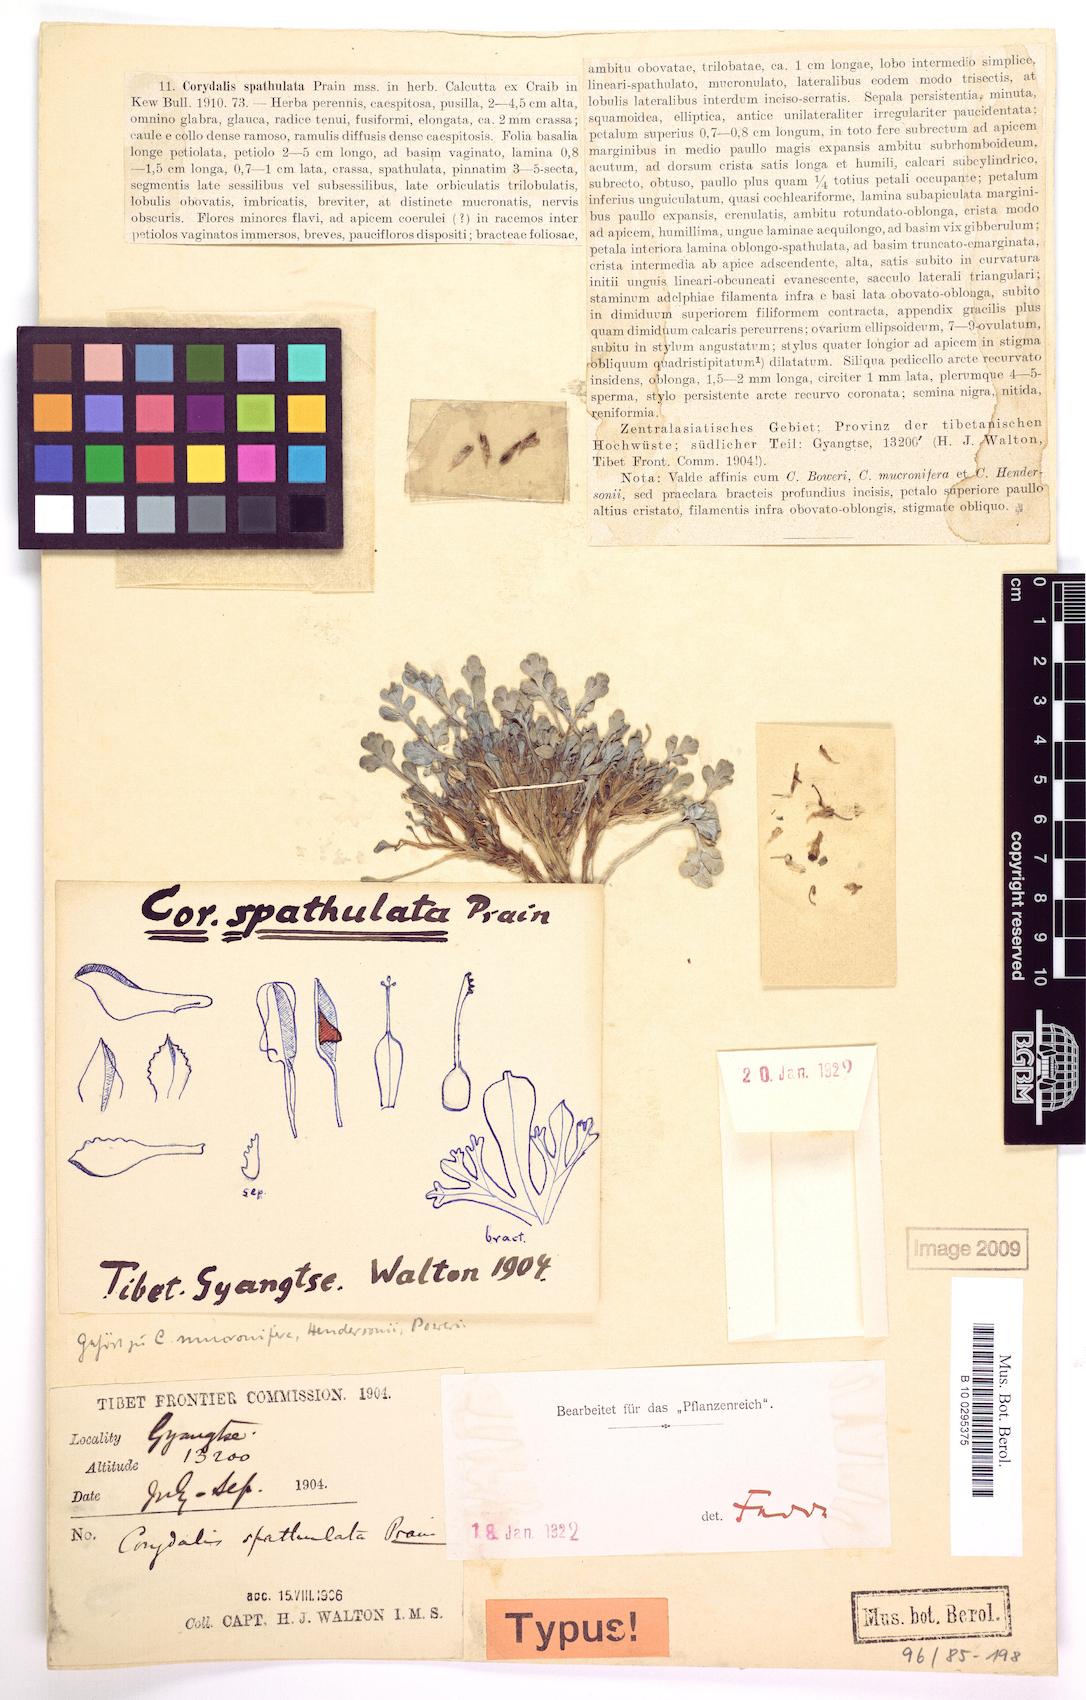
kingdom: Plantae
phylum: Tracheophyta
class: Magnoliopsida
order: Ranunculales
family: Papaveraceae
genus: Corydalis
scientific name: Corydalis spathulata
